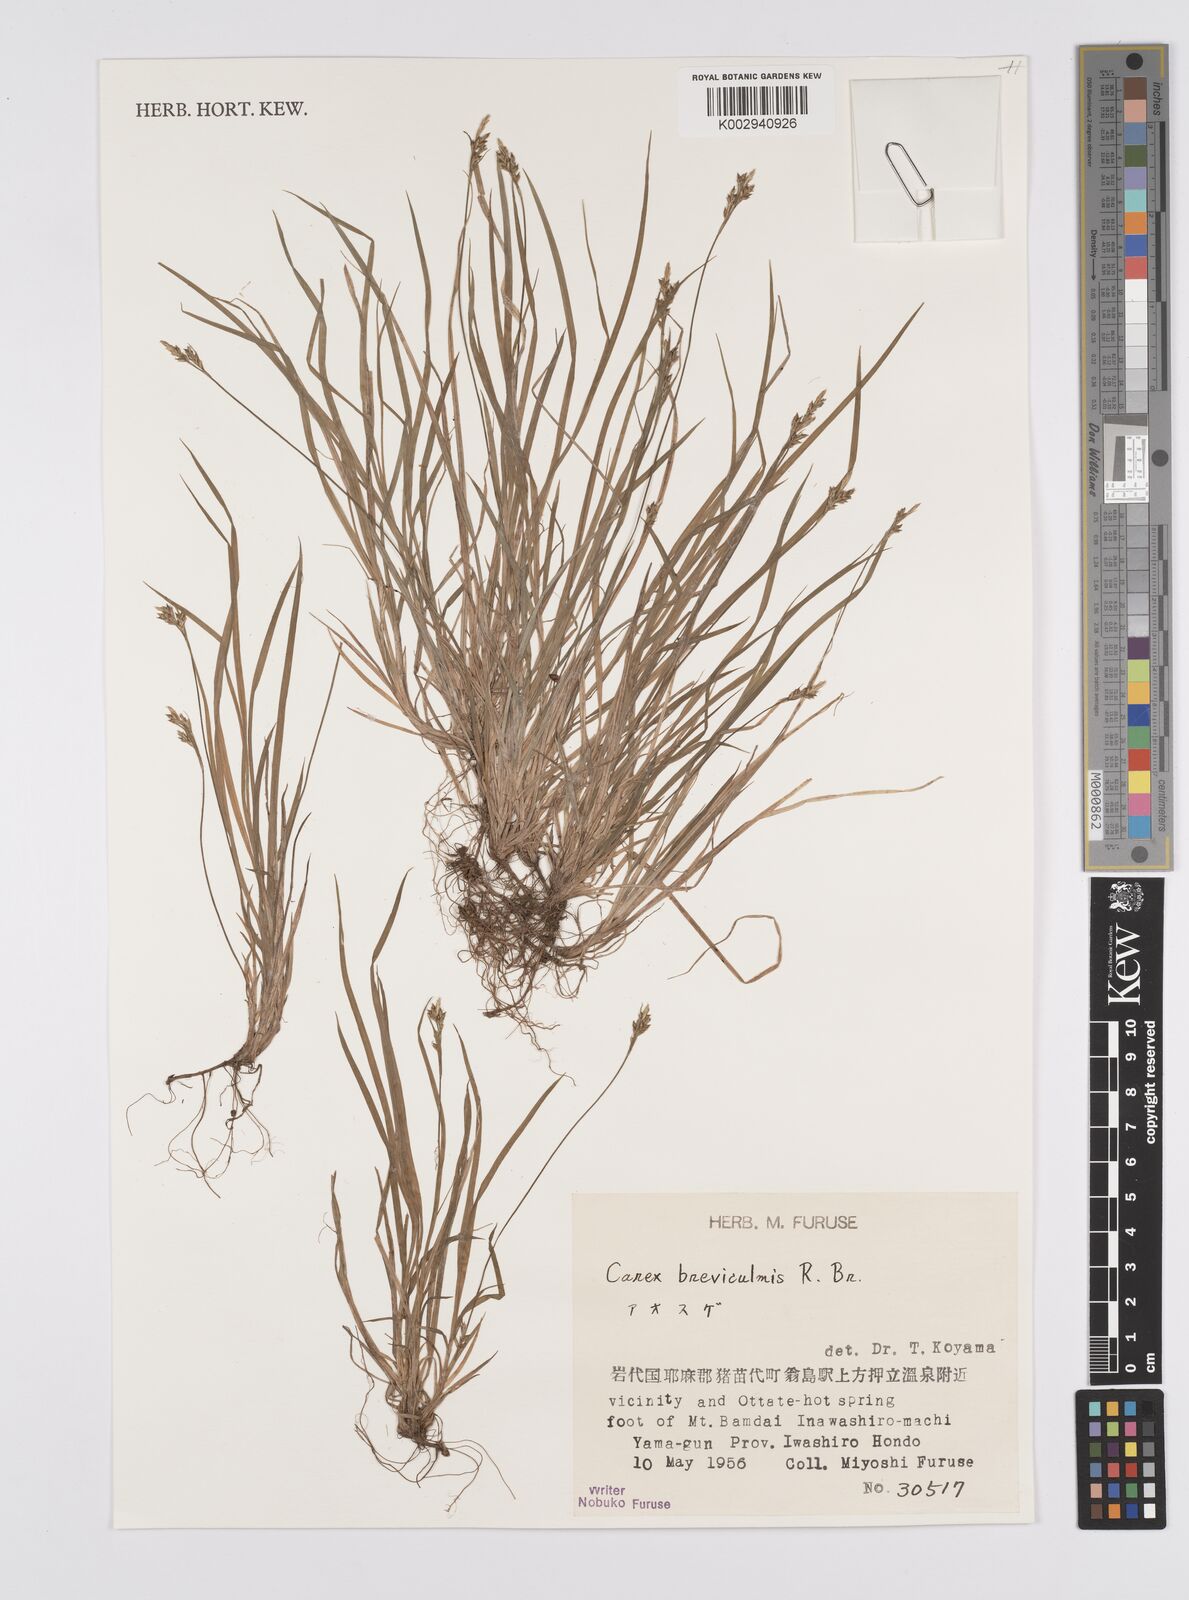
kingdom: Plantae
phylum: Tracheophyta
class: Liliopsida
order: Poales
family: Cyperaceae
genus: Carex
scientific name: Carex breviculmis
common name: Asian shortstem sedge
